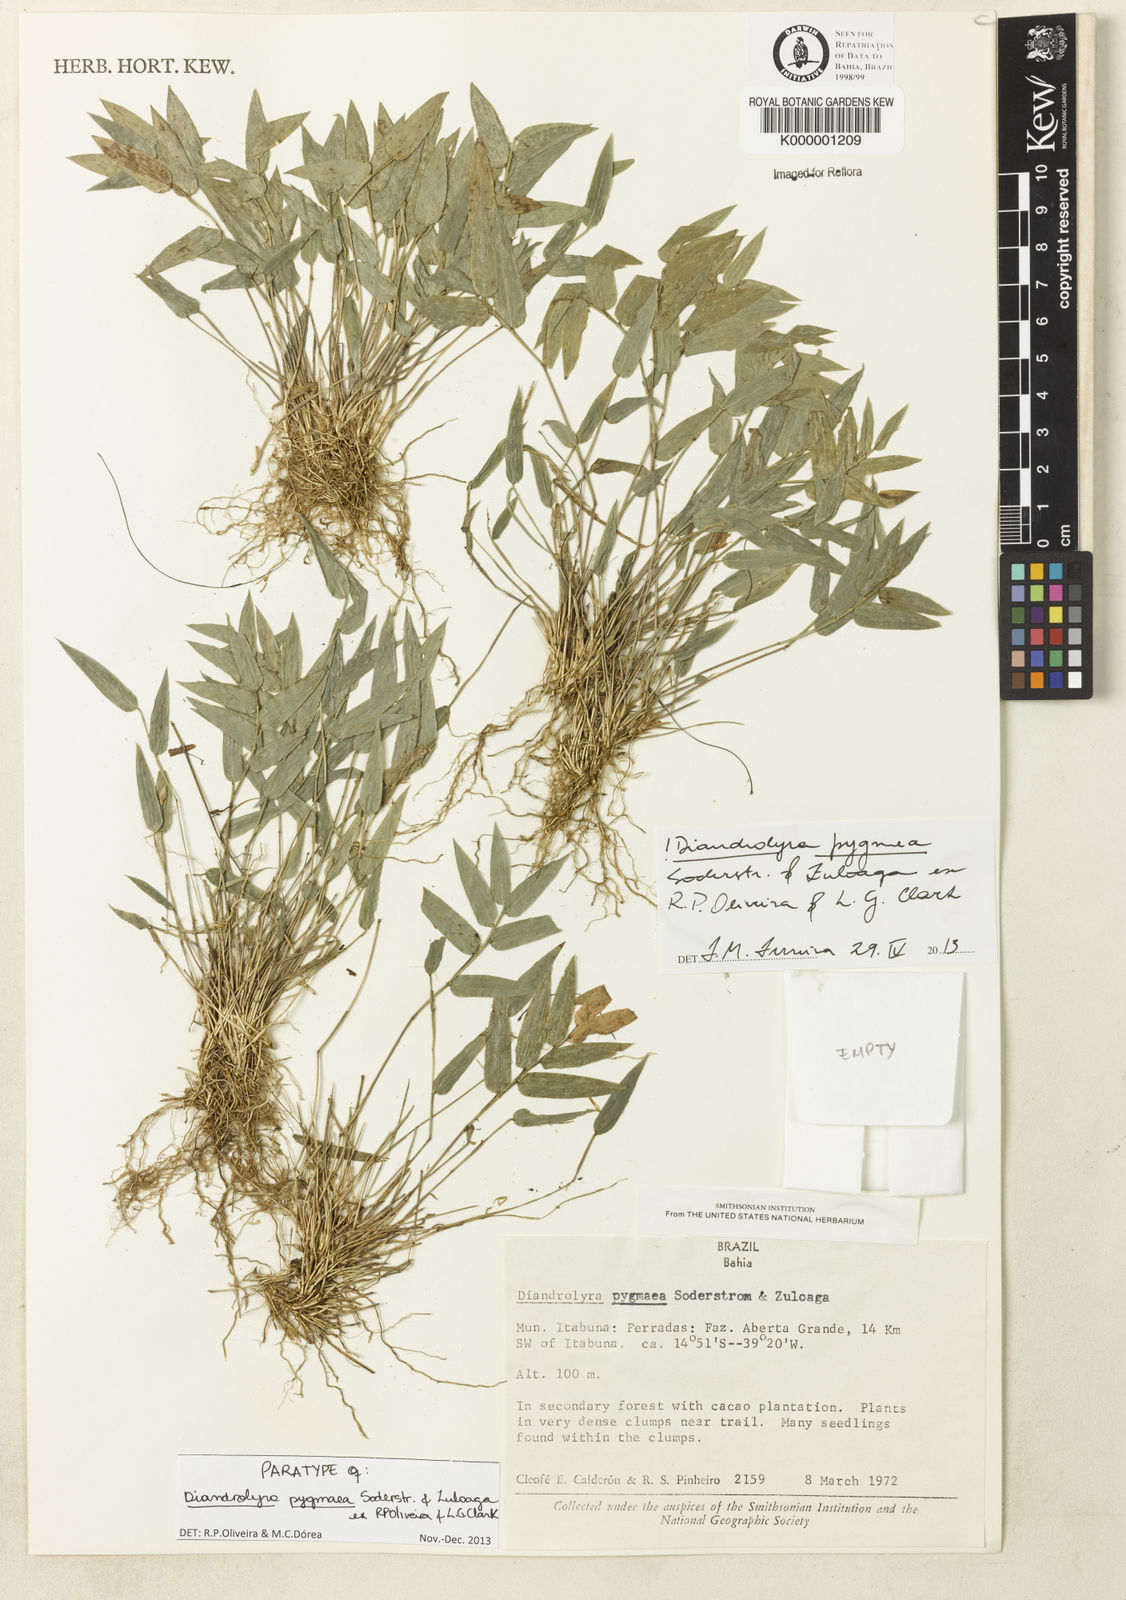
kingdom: Plantae
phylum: Tracheophyta
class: Liliopsida
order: Poales
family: Poaceae
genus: Diandrolyra
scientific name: Diandrolyra pygmaea
